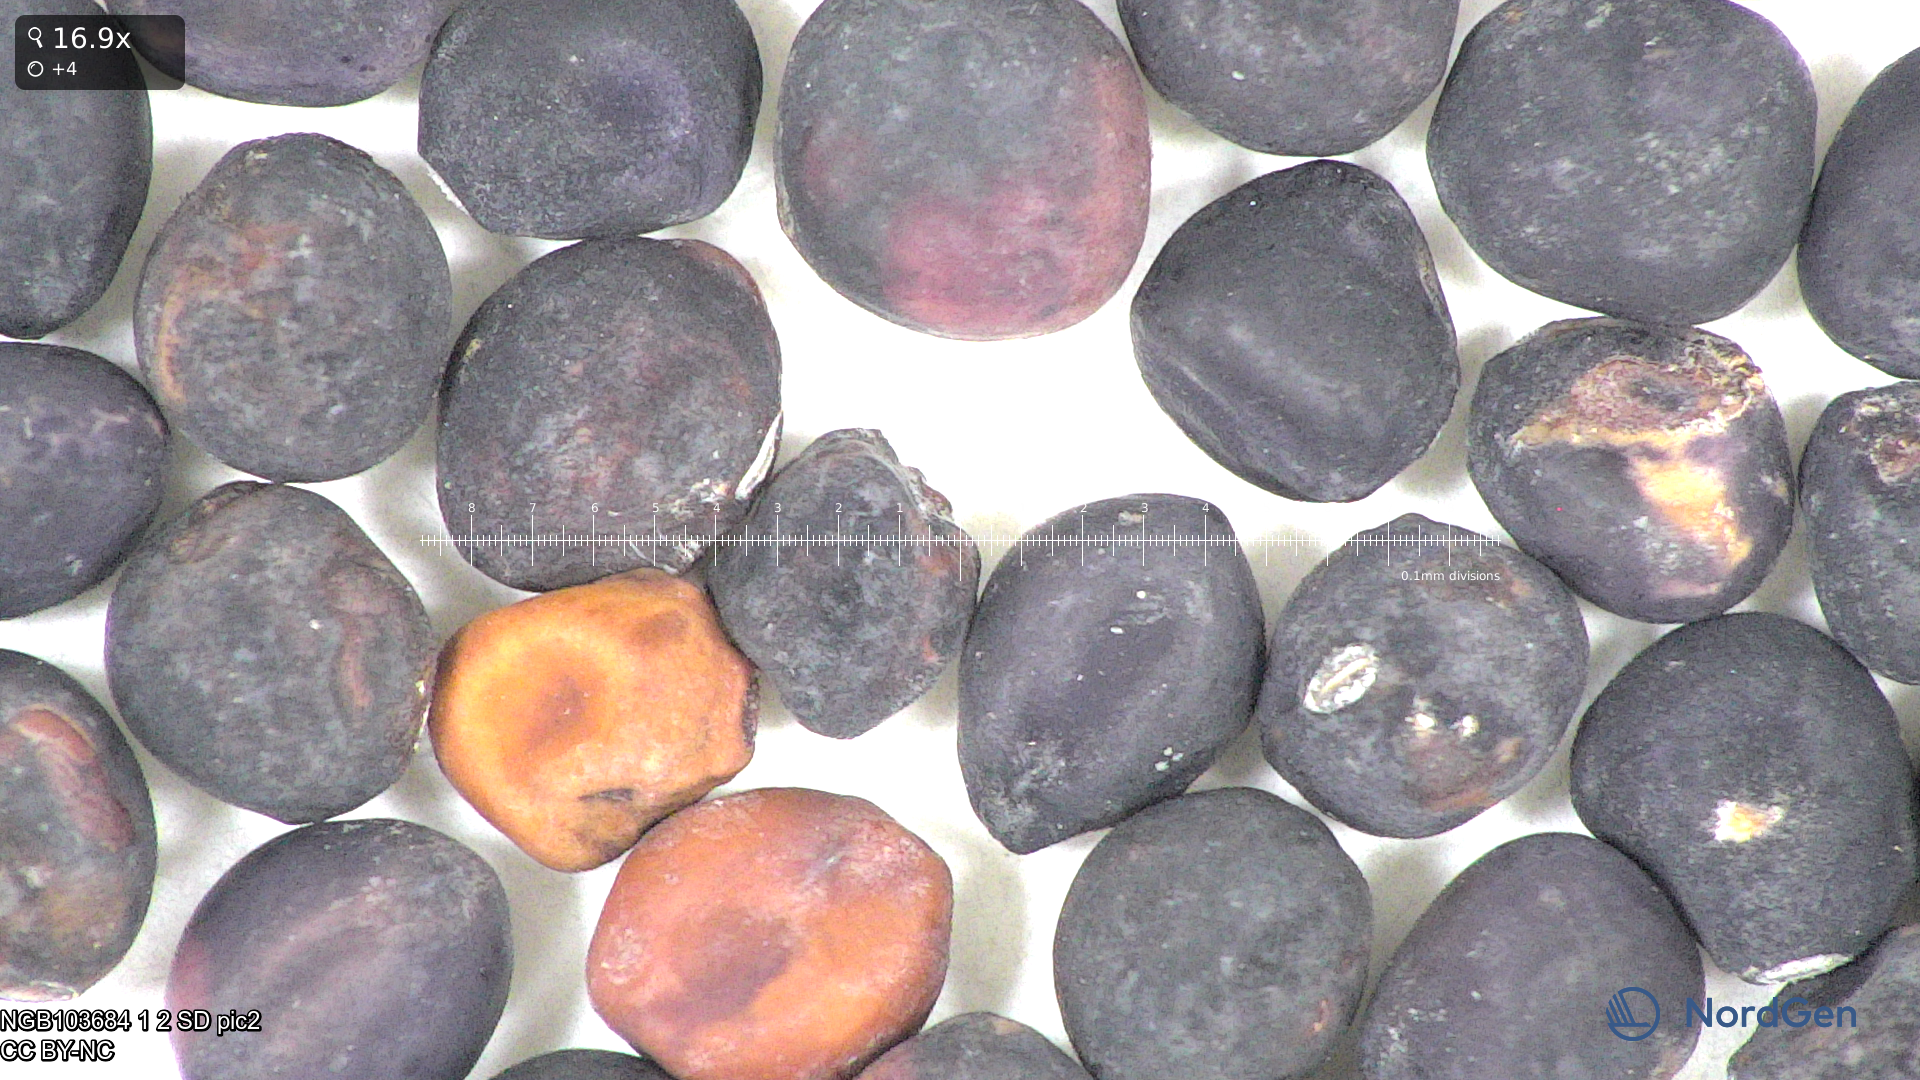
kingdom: Plantae
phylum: Tracheophyta
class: Magnoliopsida
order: Fabales
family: Fabaceae
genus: Lathyrus
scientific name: Lathyrus oleraceus
